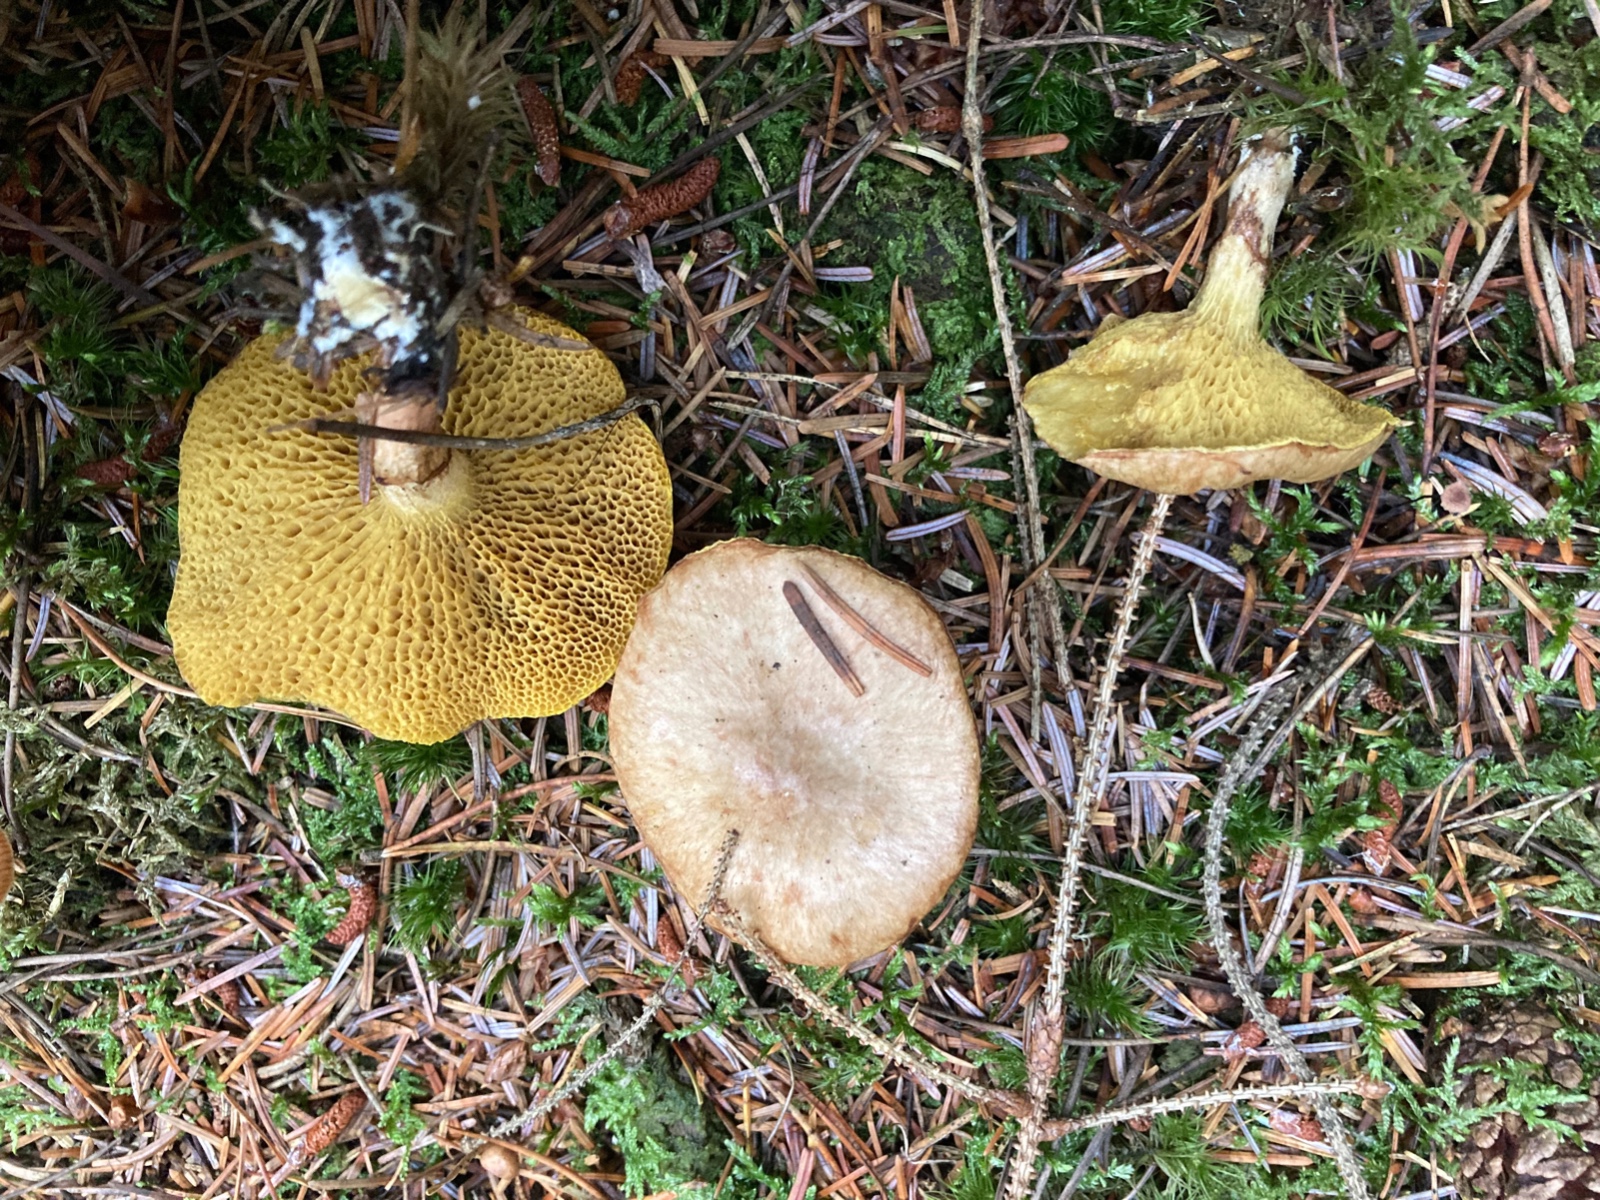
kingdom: Fungi
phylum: Basidiomycota
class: Agaricomycetes
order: Boletales
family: Suillaceae
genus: Suillus
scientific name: Suillus flavidus
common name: mose-slimrørhat
